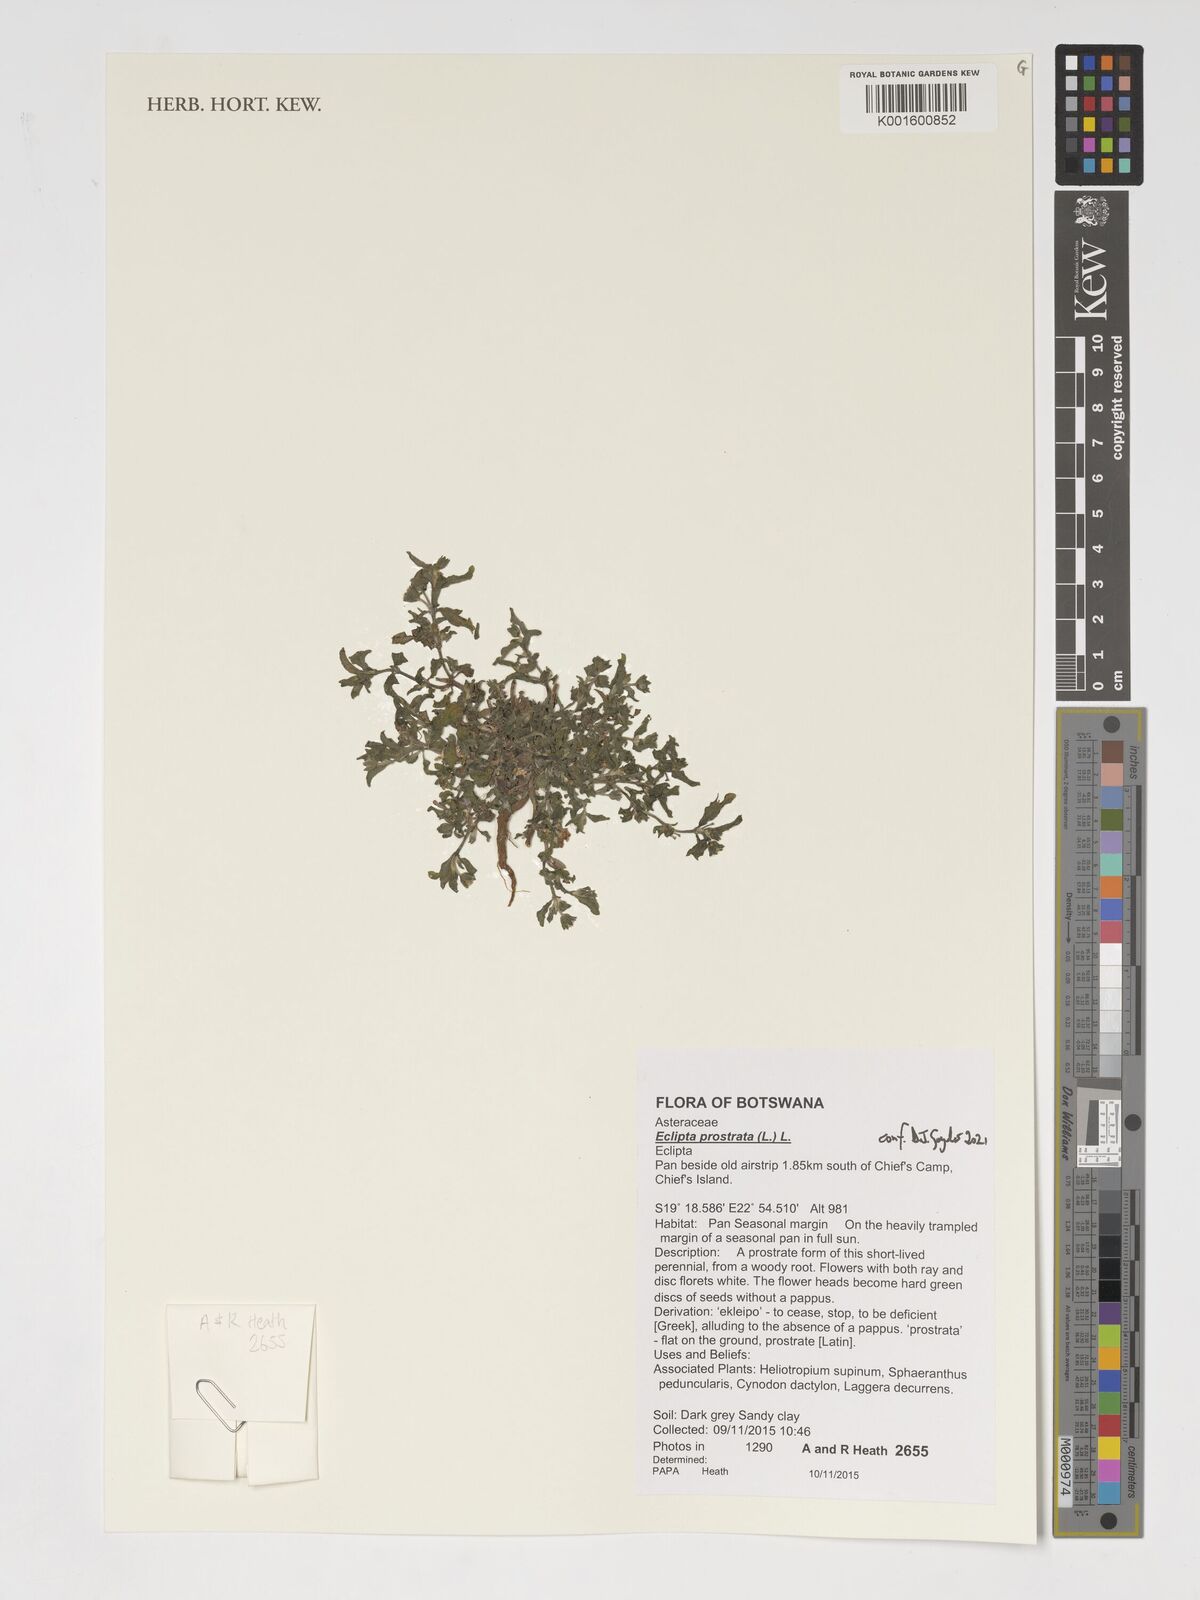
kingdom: Plantae
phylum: Tracheophyta
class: Magnoliopsida
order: Asterales
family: Asteraceae
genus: Eclipta
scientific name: Eclipta prostrata
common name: False daisy
